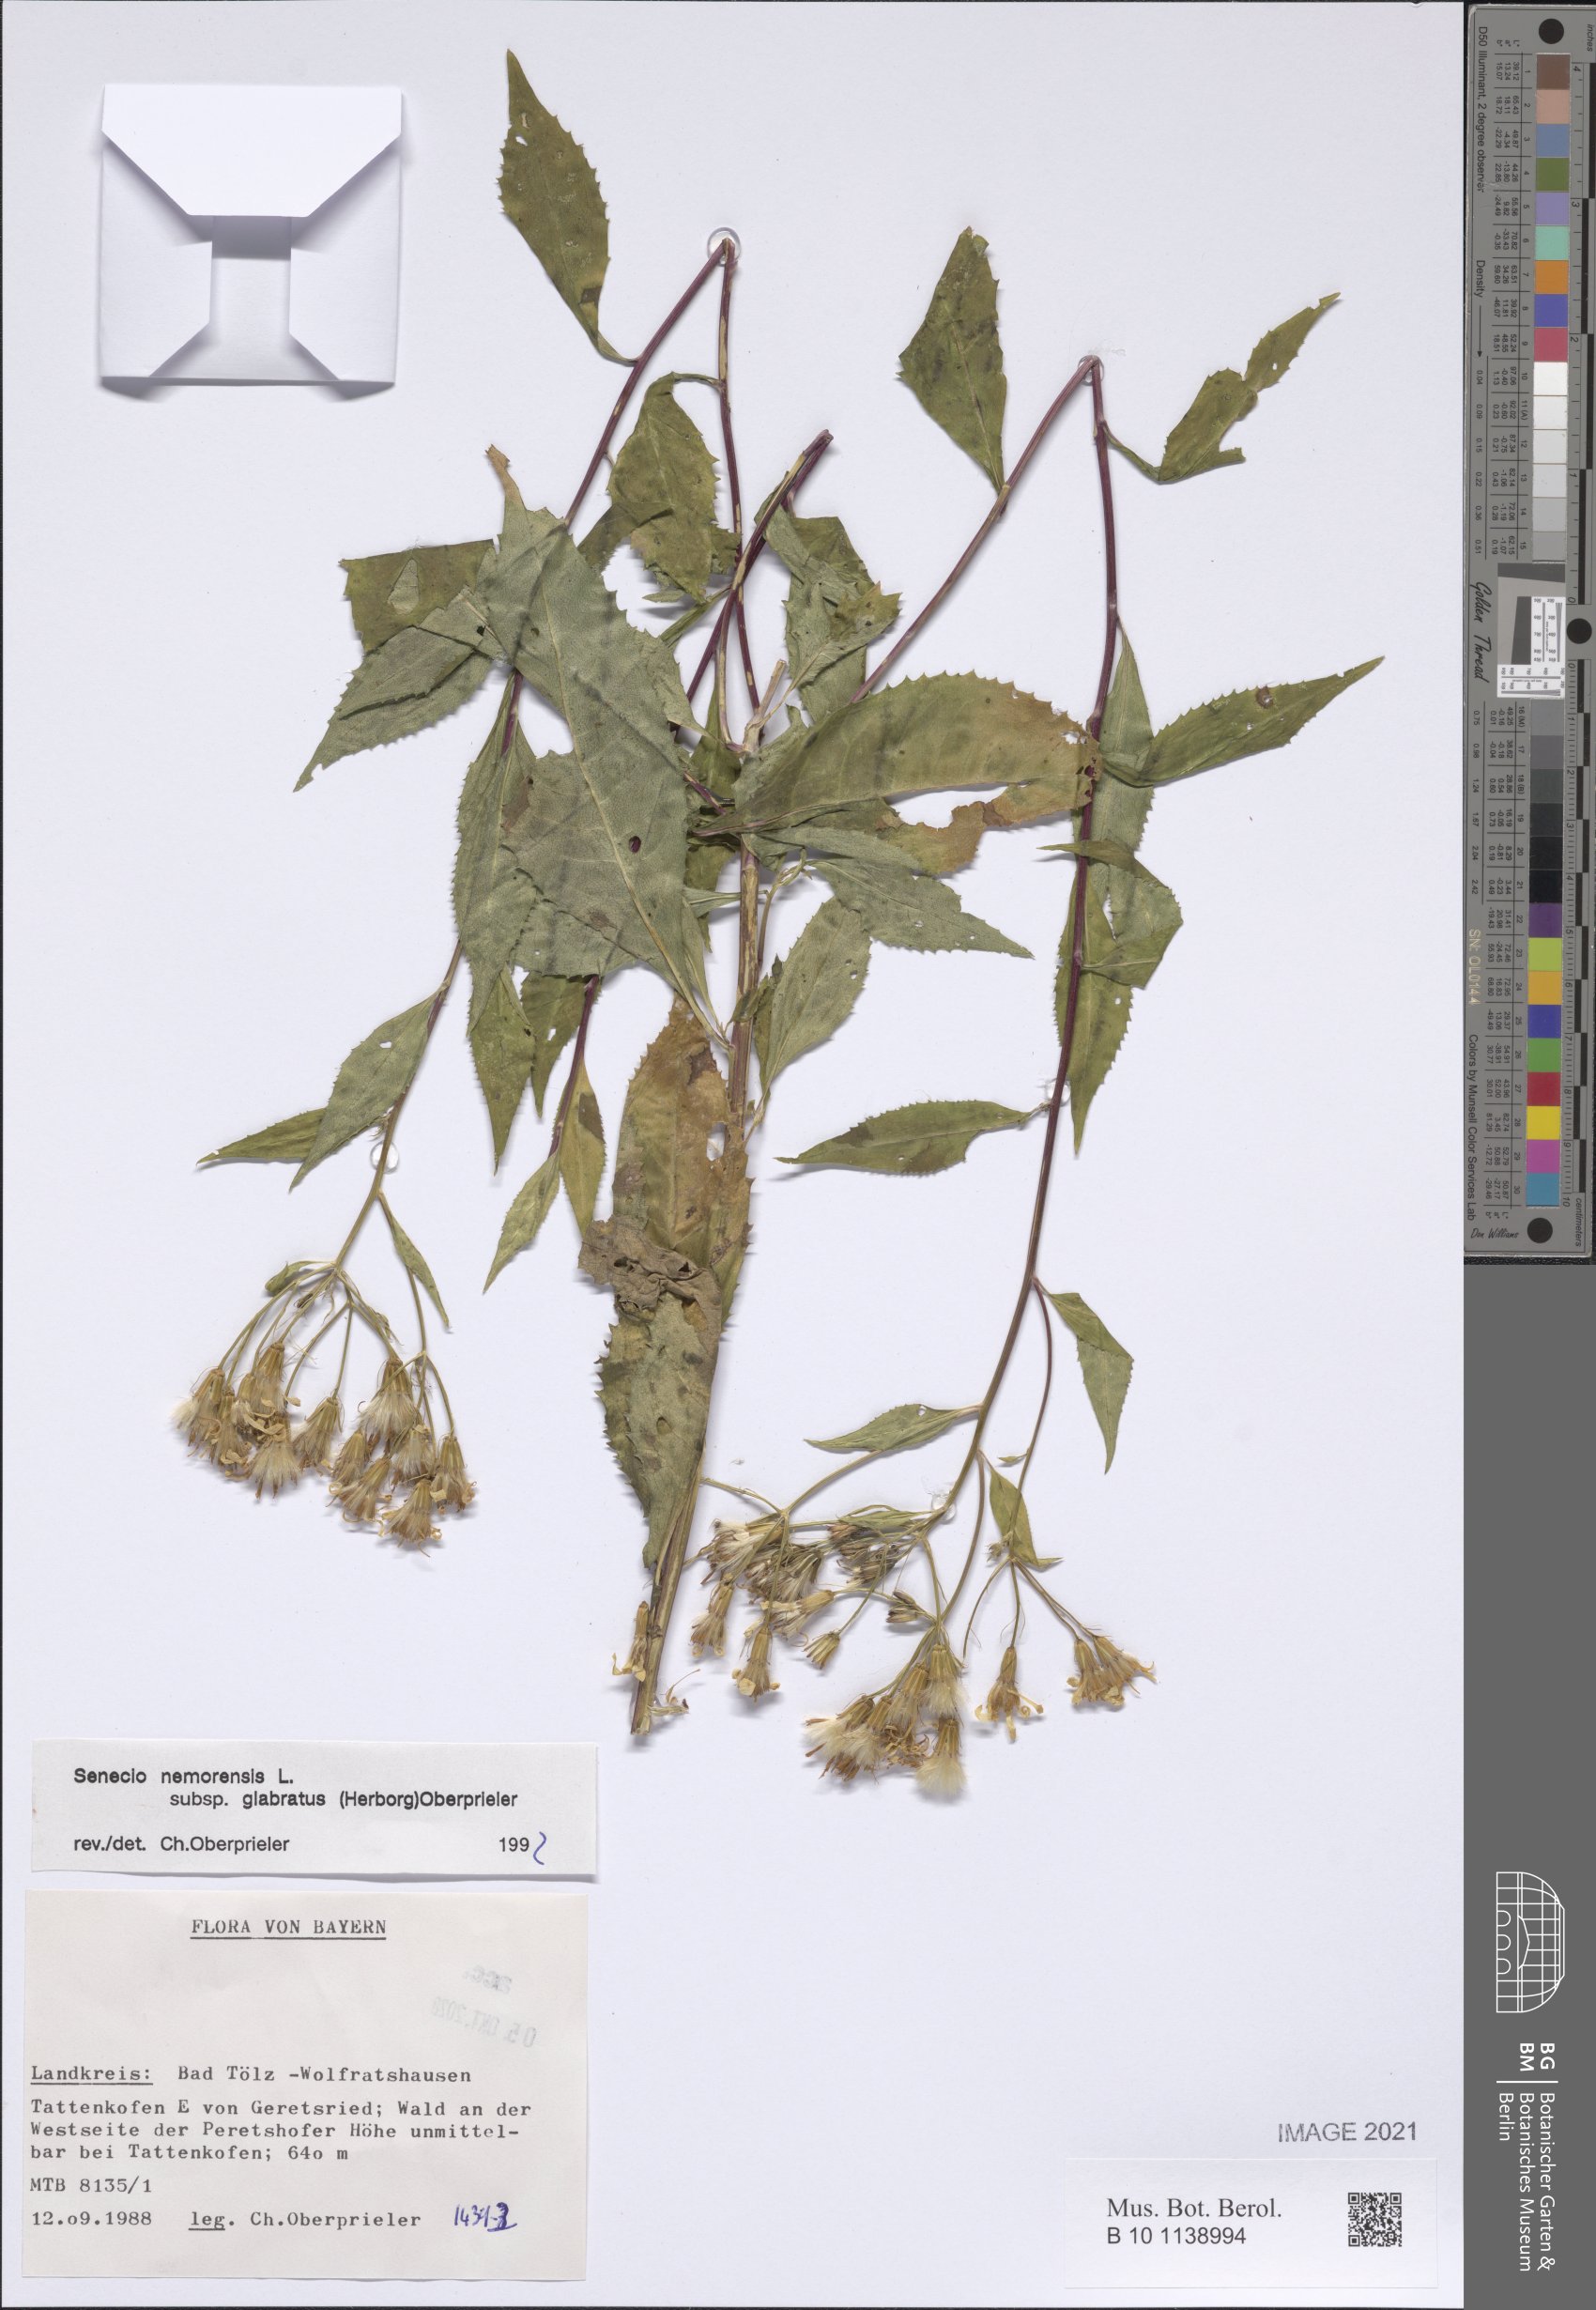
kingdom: Plantae
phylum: Tracheophyta
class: Magnoliopsida
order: Asterales
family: Asteraceae
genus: Senecio
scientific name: Senecio germanicus
